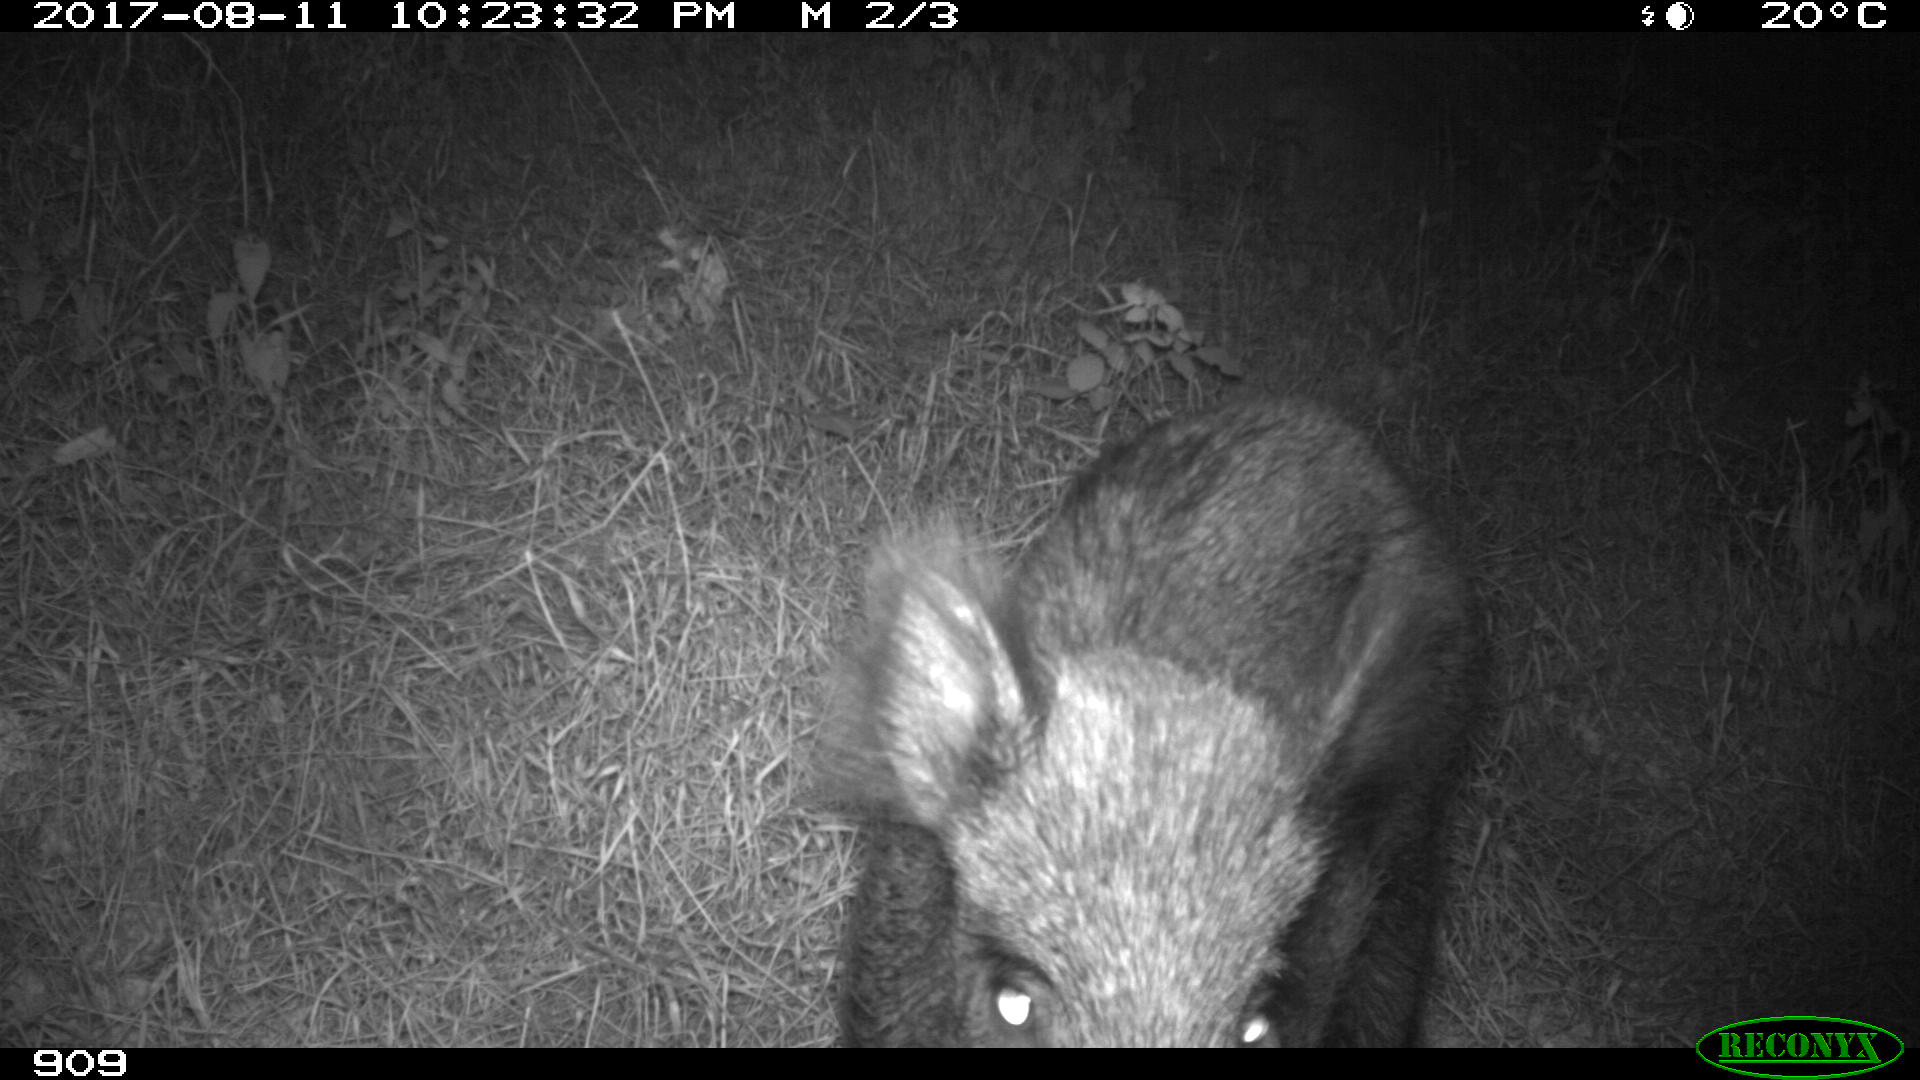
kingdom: Animalia
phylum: Chordata
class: Mammalia
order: Artiodactyla
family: Suidae
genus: Sus
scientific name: Sus scrofa
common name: Wild boar
